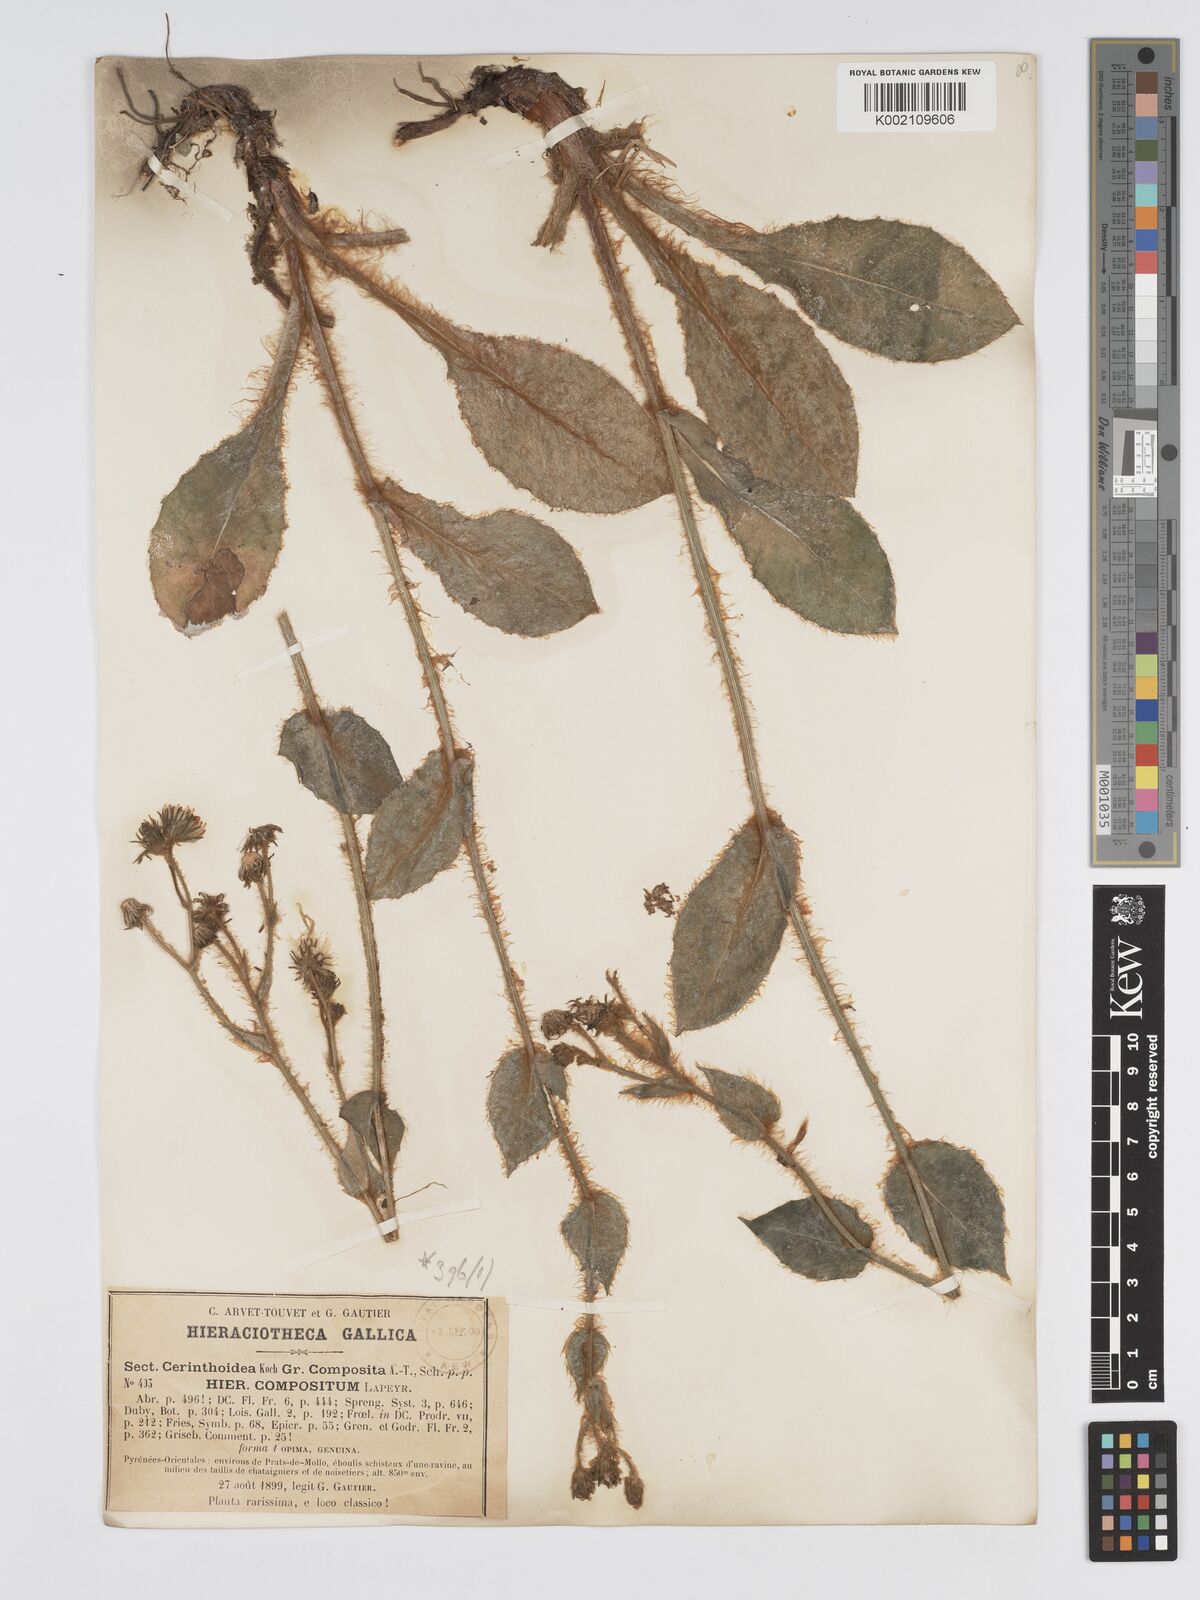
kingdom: Plantae
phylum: Tracheophyta
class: Magnoliopsida
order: Asterales
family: Asteraceae
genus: Hieracium
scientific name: Hieracium compositum
